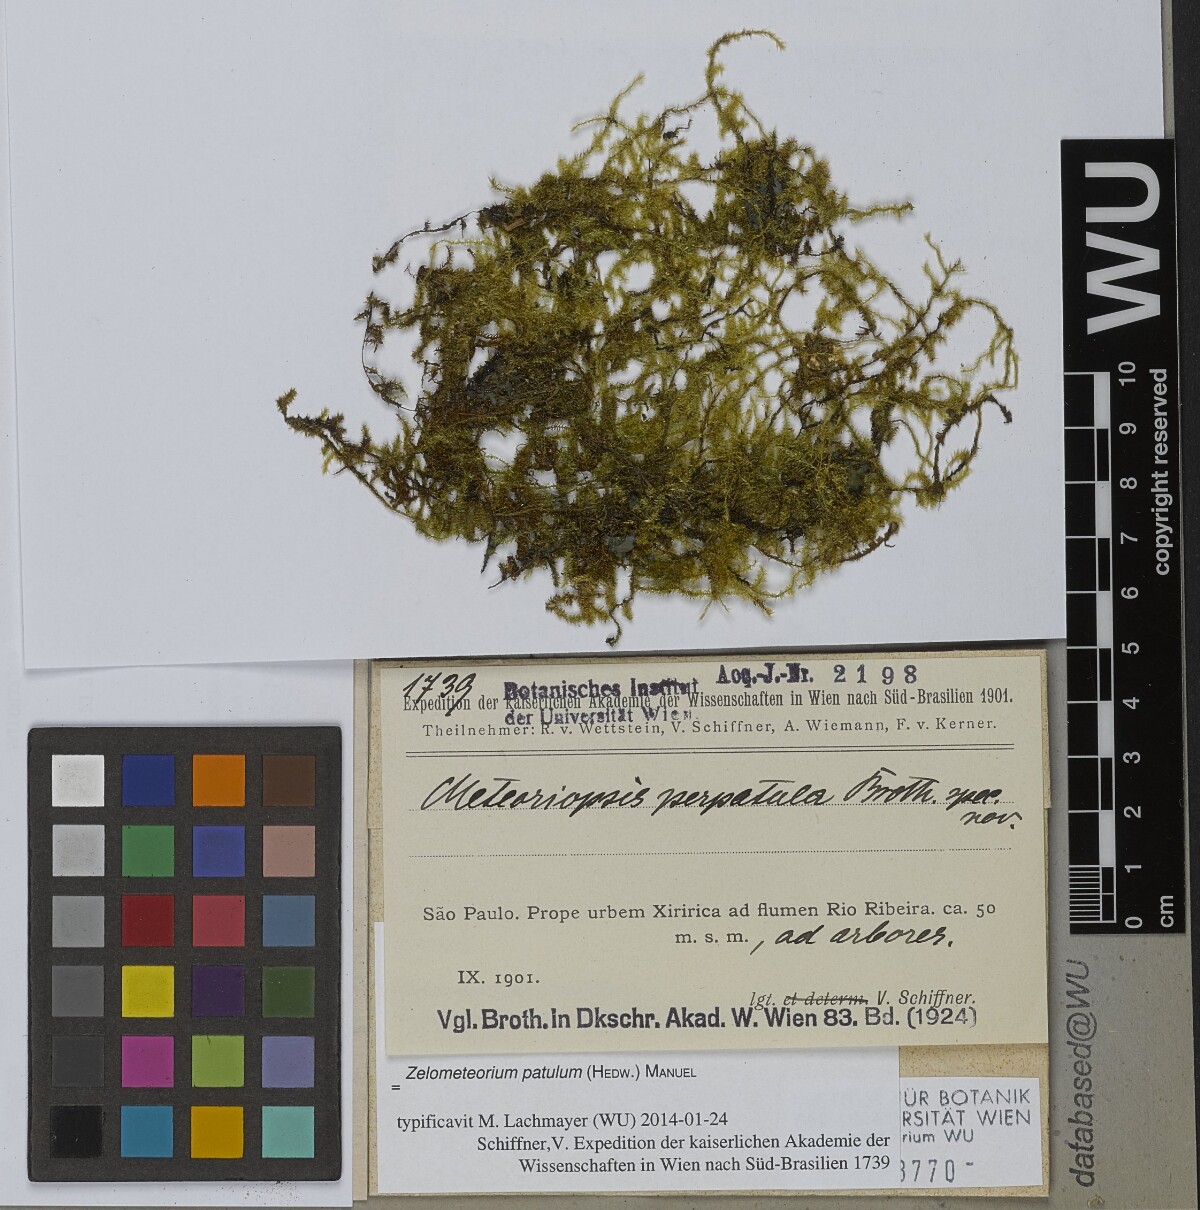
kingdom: Plantae
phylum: Bryophyta
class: Bryopsida
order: Hypnales
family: Brachytheciaceae
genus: Zelometeorium
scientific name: Zelometeorium patulum
